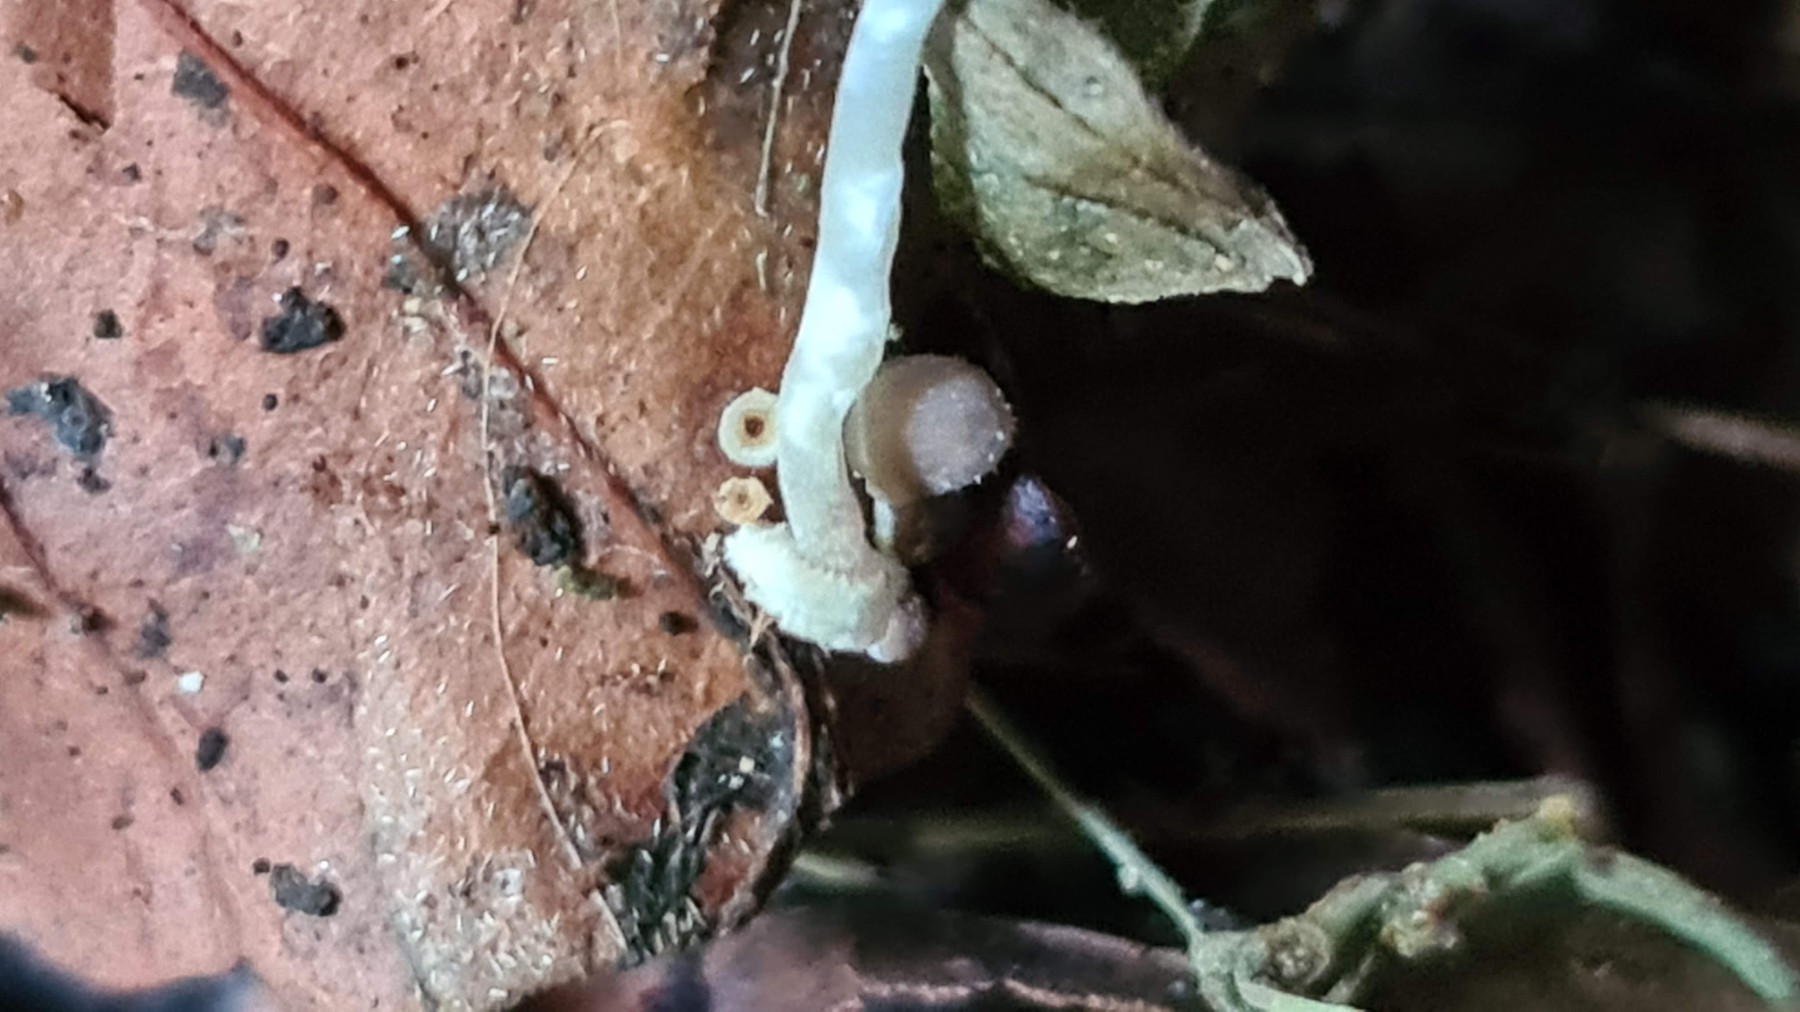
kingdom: Fungi
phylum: Basidiomycota
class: Agaricomycetes
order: Agaricales
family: Mycenaceae
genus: Mycena
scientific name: Mycena stylobates
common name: fureskivet huesvamp
